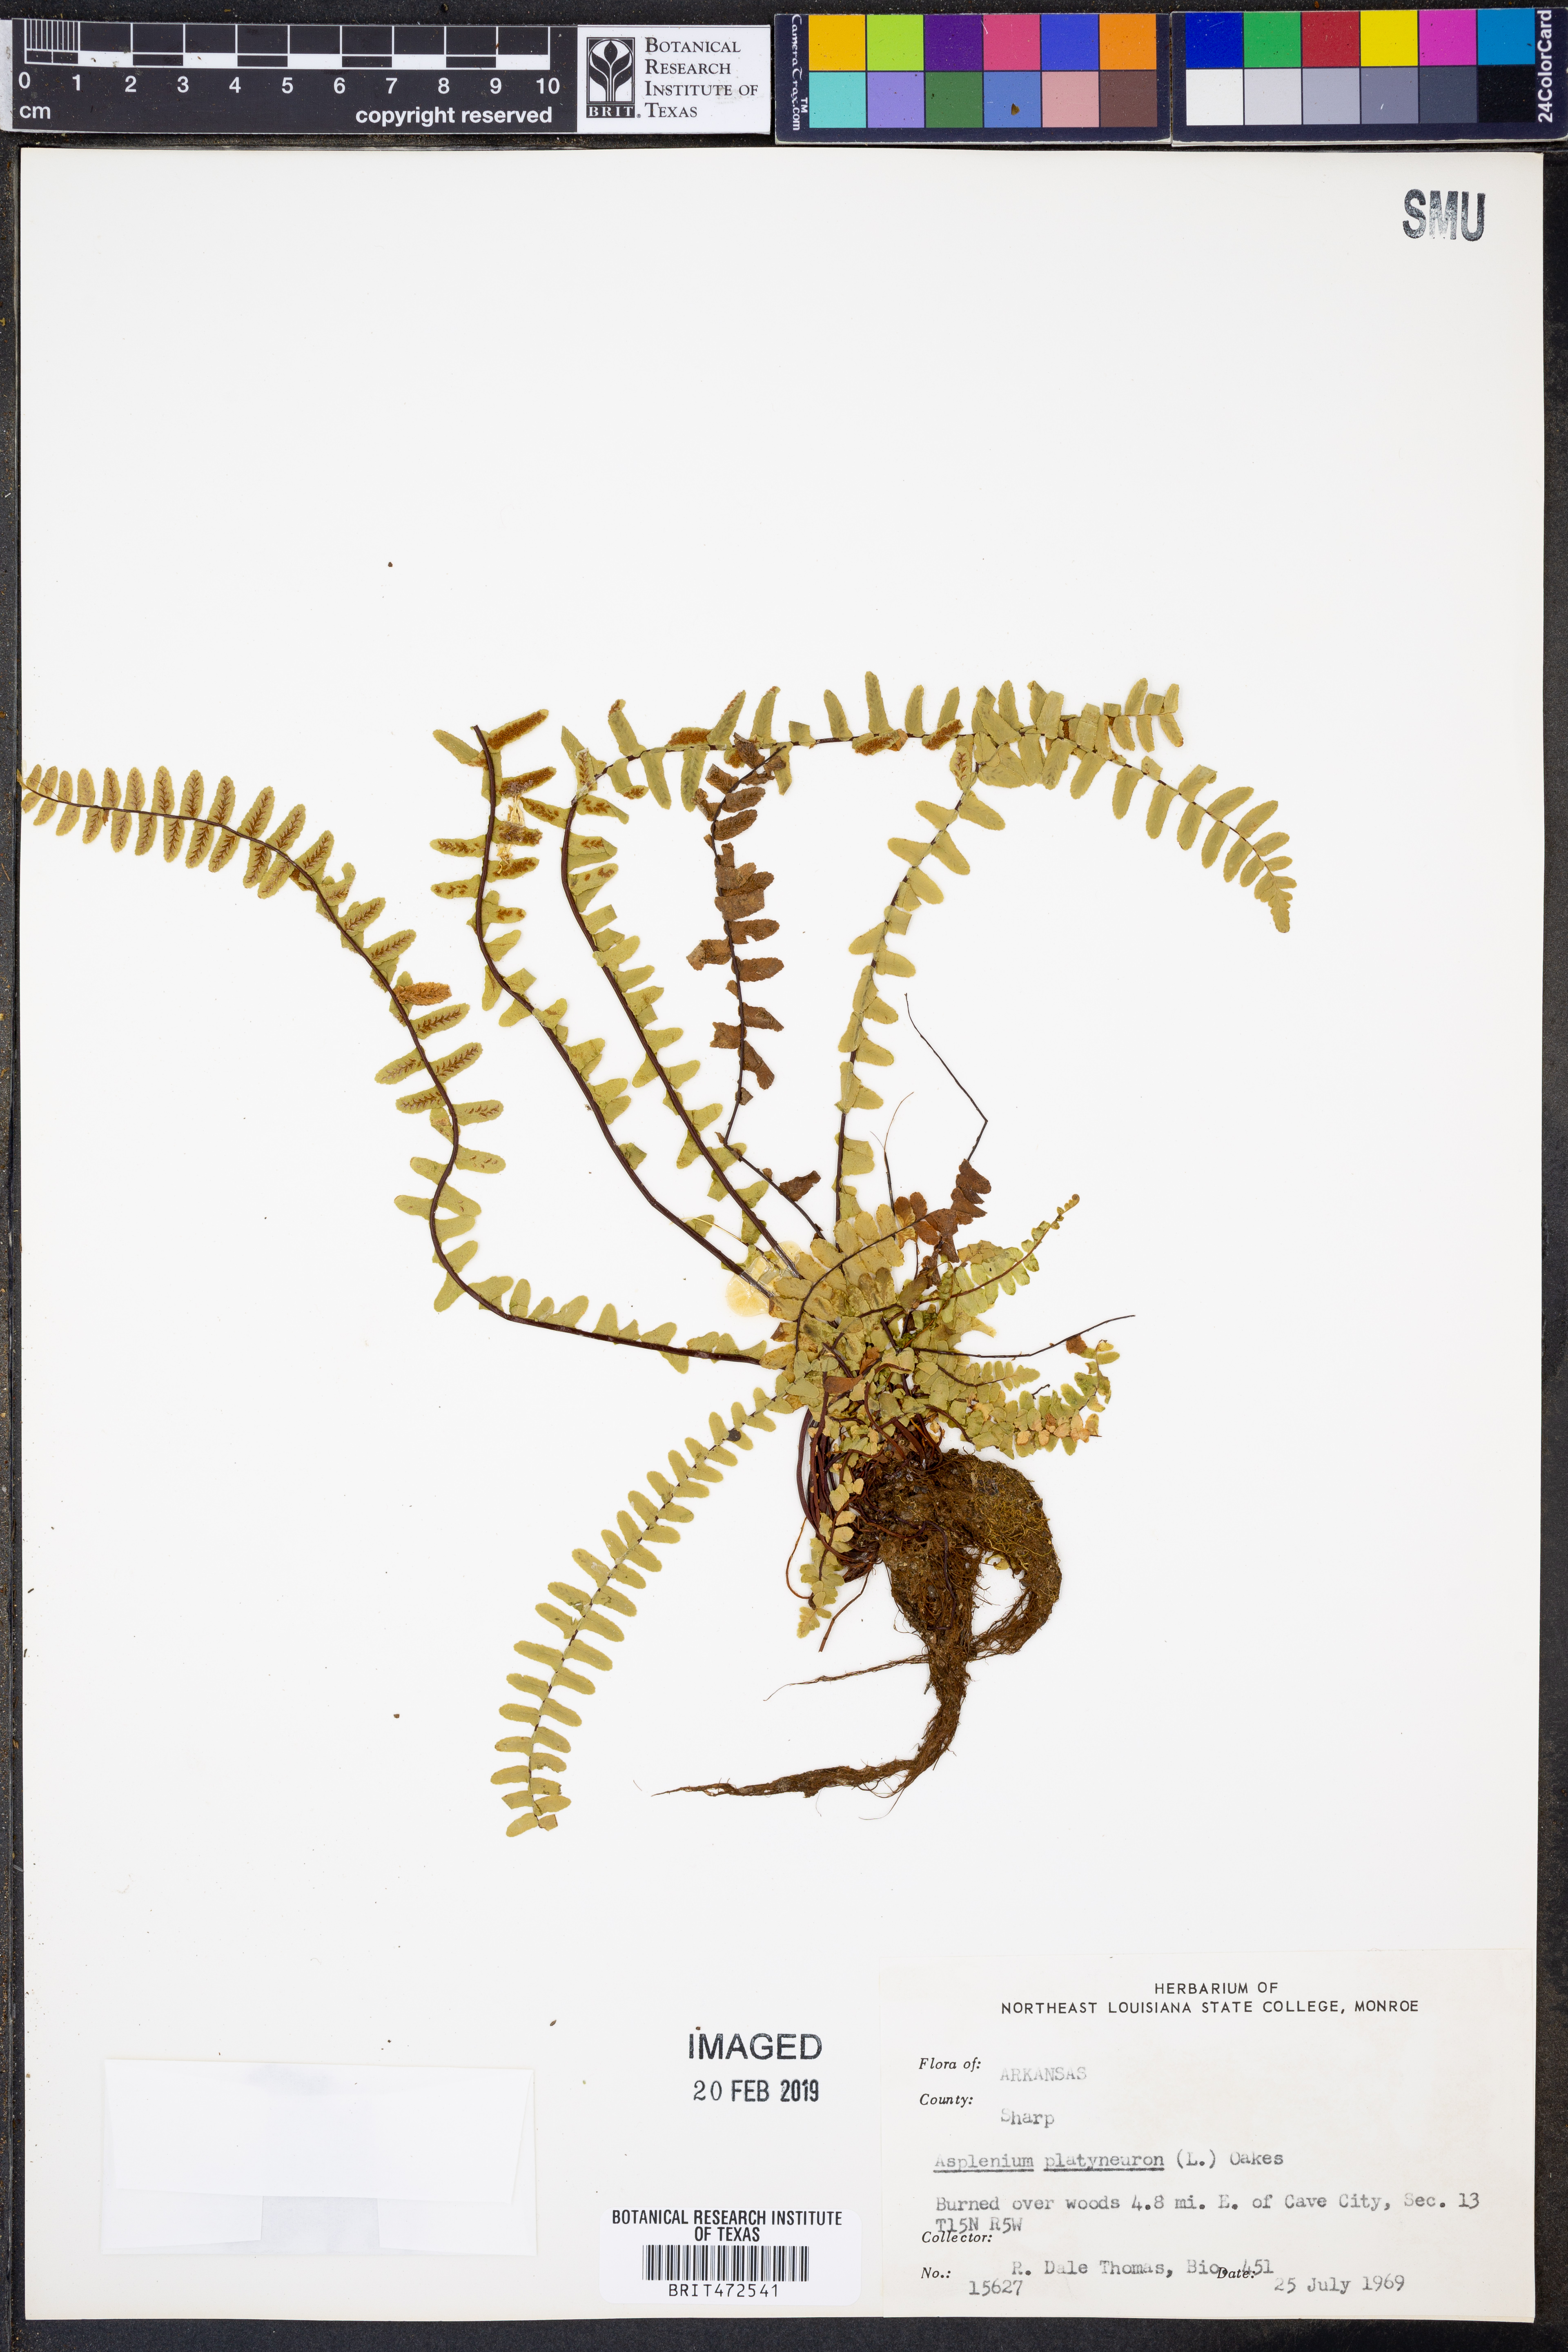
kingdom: Plantae
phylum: Tracheophyta
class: Polypodiopsida
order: Polypodiales
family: Aspleniaceae
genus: Asplenium
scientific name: Asplenium platyneuron
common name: Ebony spleenwort
